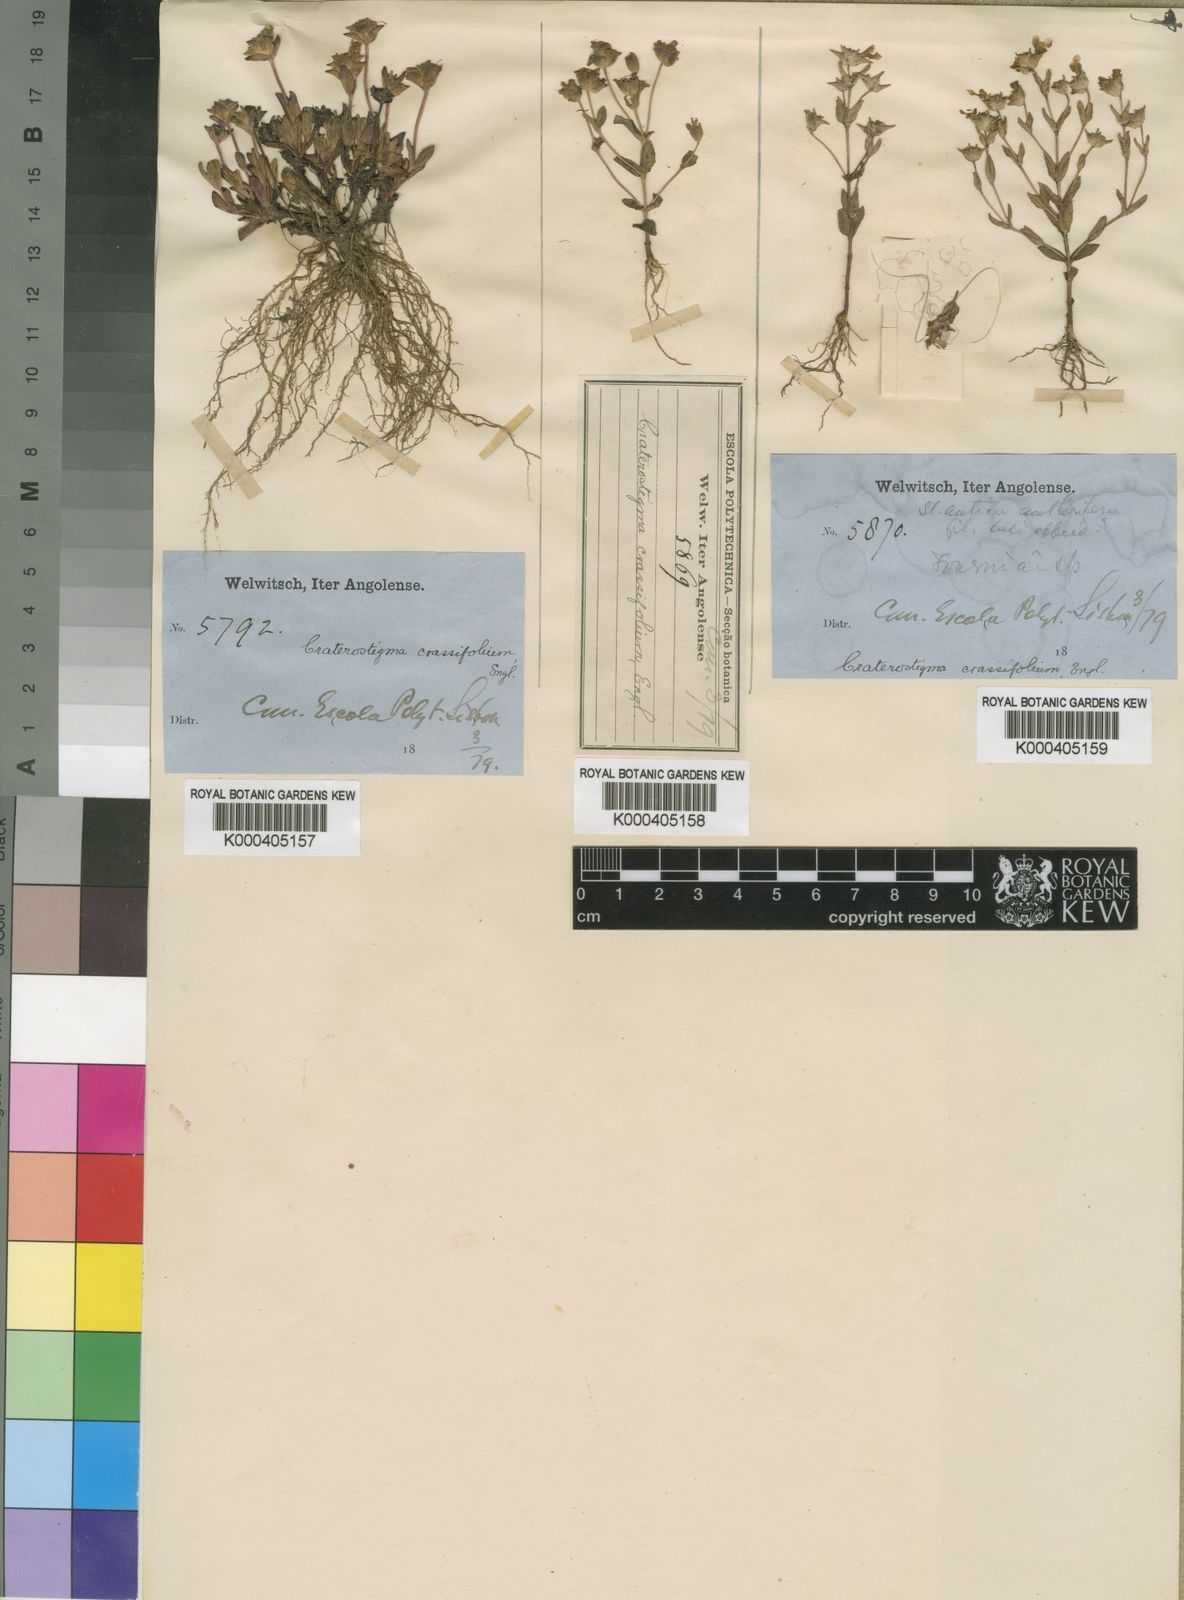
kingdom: Plantae
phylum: Tracheophyta
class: Magnoliopsida
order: Lamiales
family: Linderniaceae
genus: Lindernia
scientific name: Lindernia crassifolia
